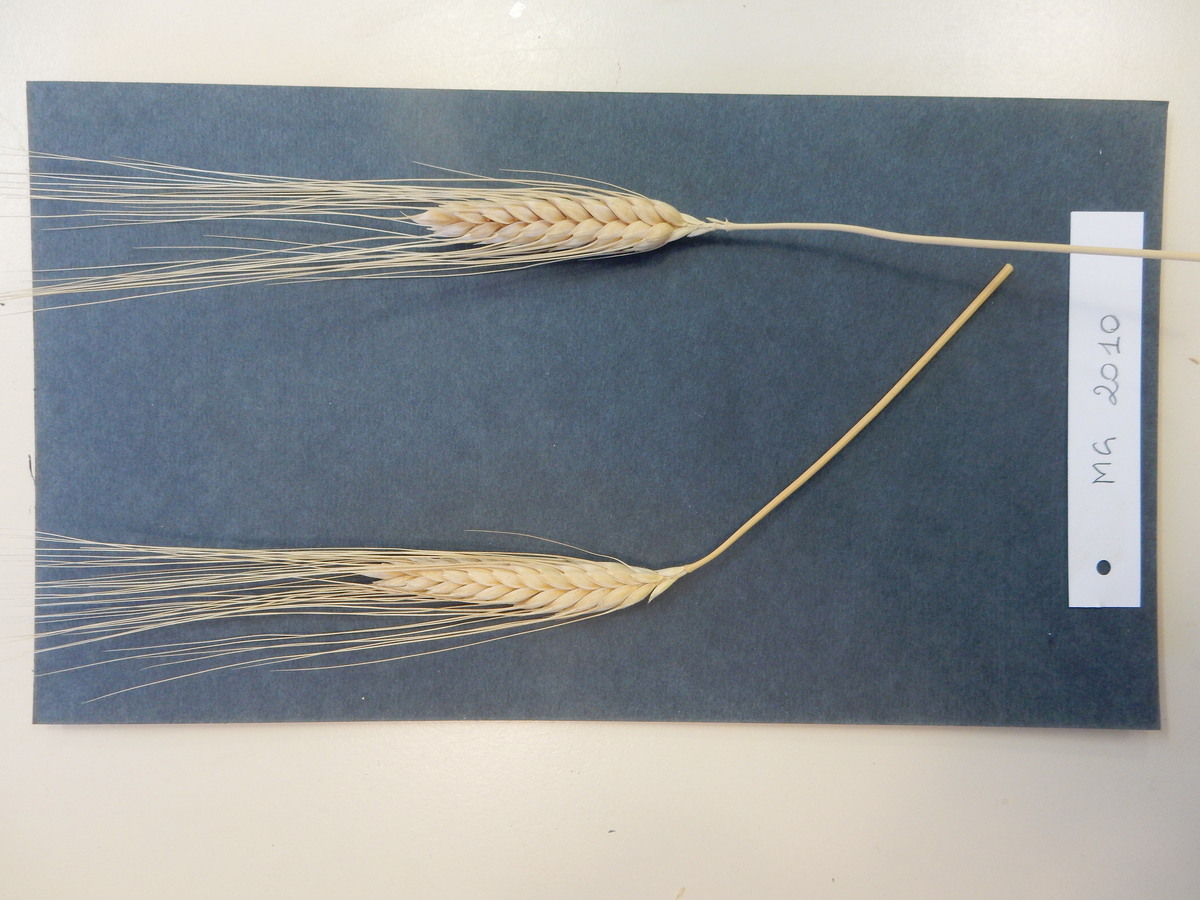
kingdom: Plantae
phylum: Tracheophyta
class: Liliopsida
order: Poales
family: Poaceae
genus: Triticum
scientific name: Triticum turgidum
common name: Wheat
